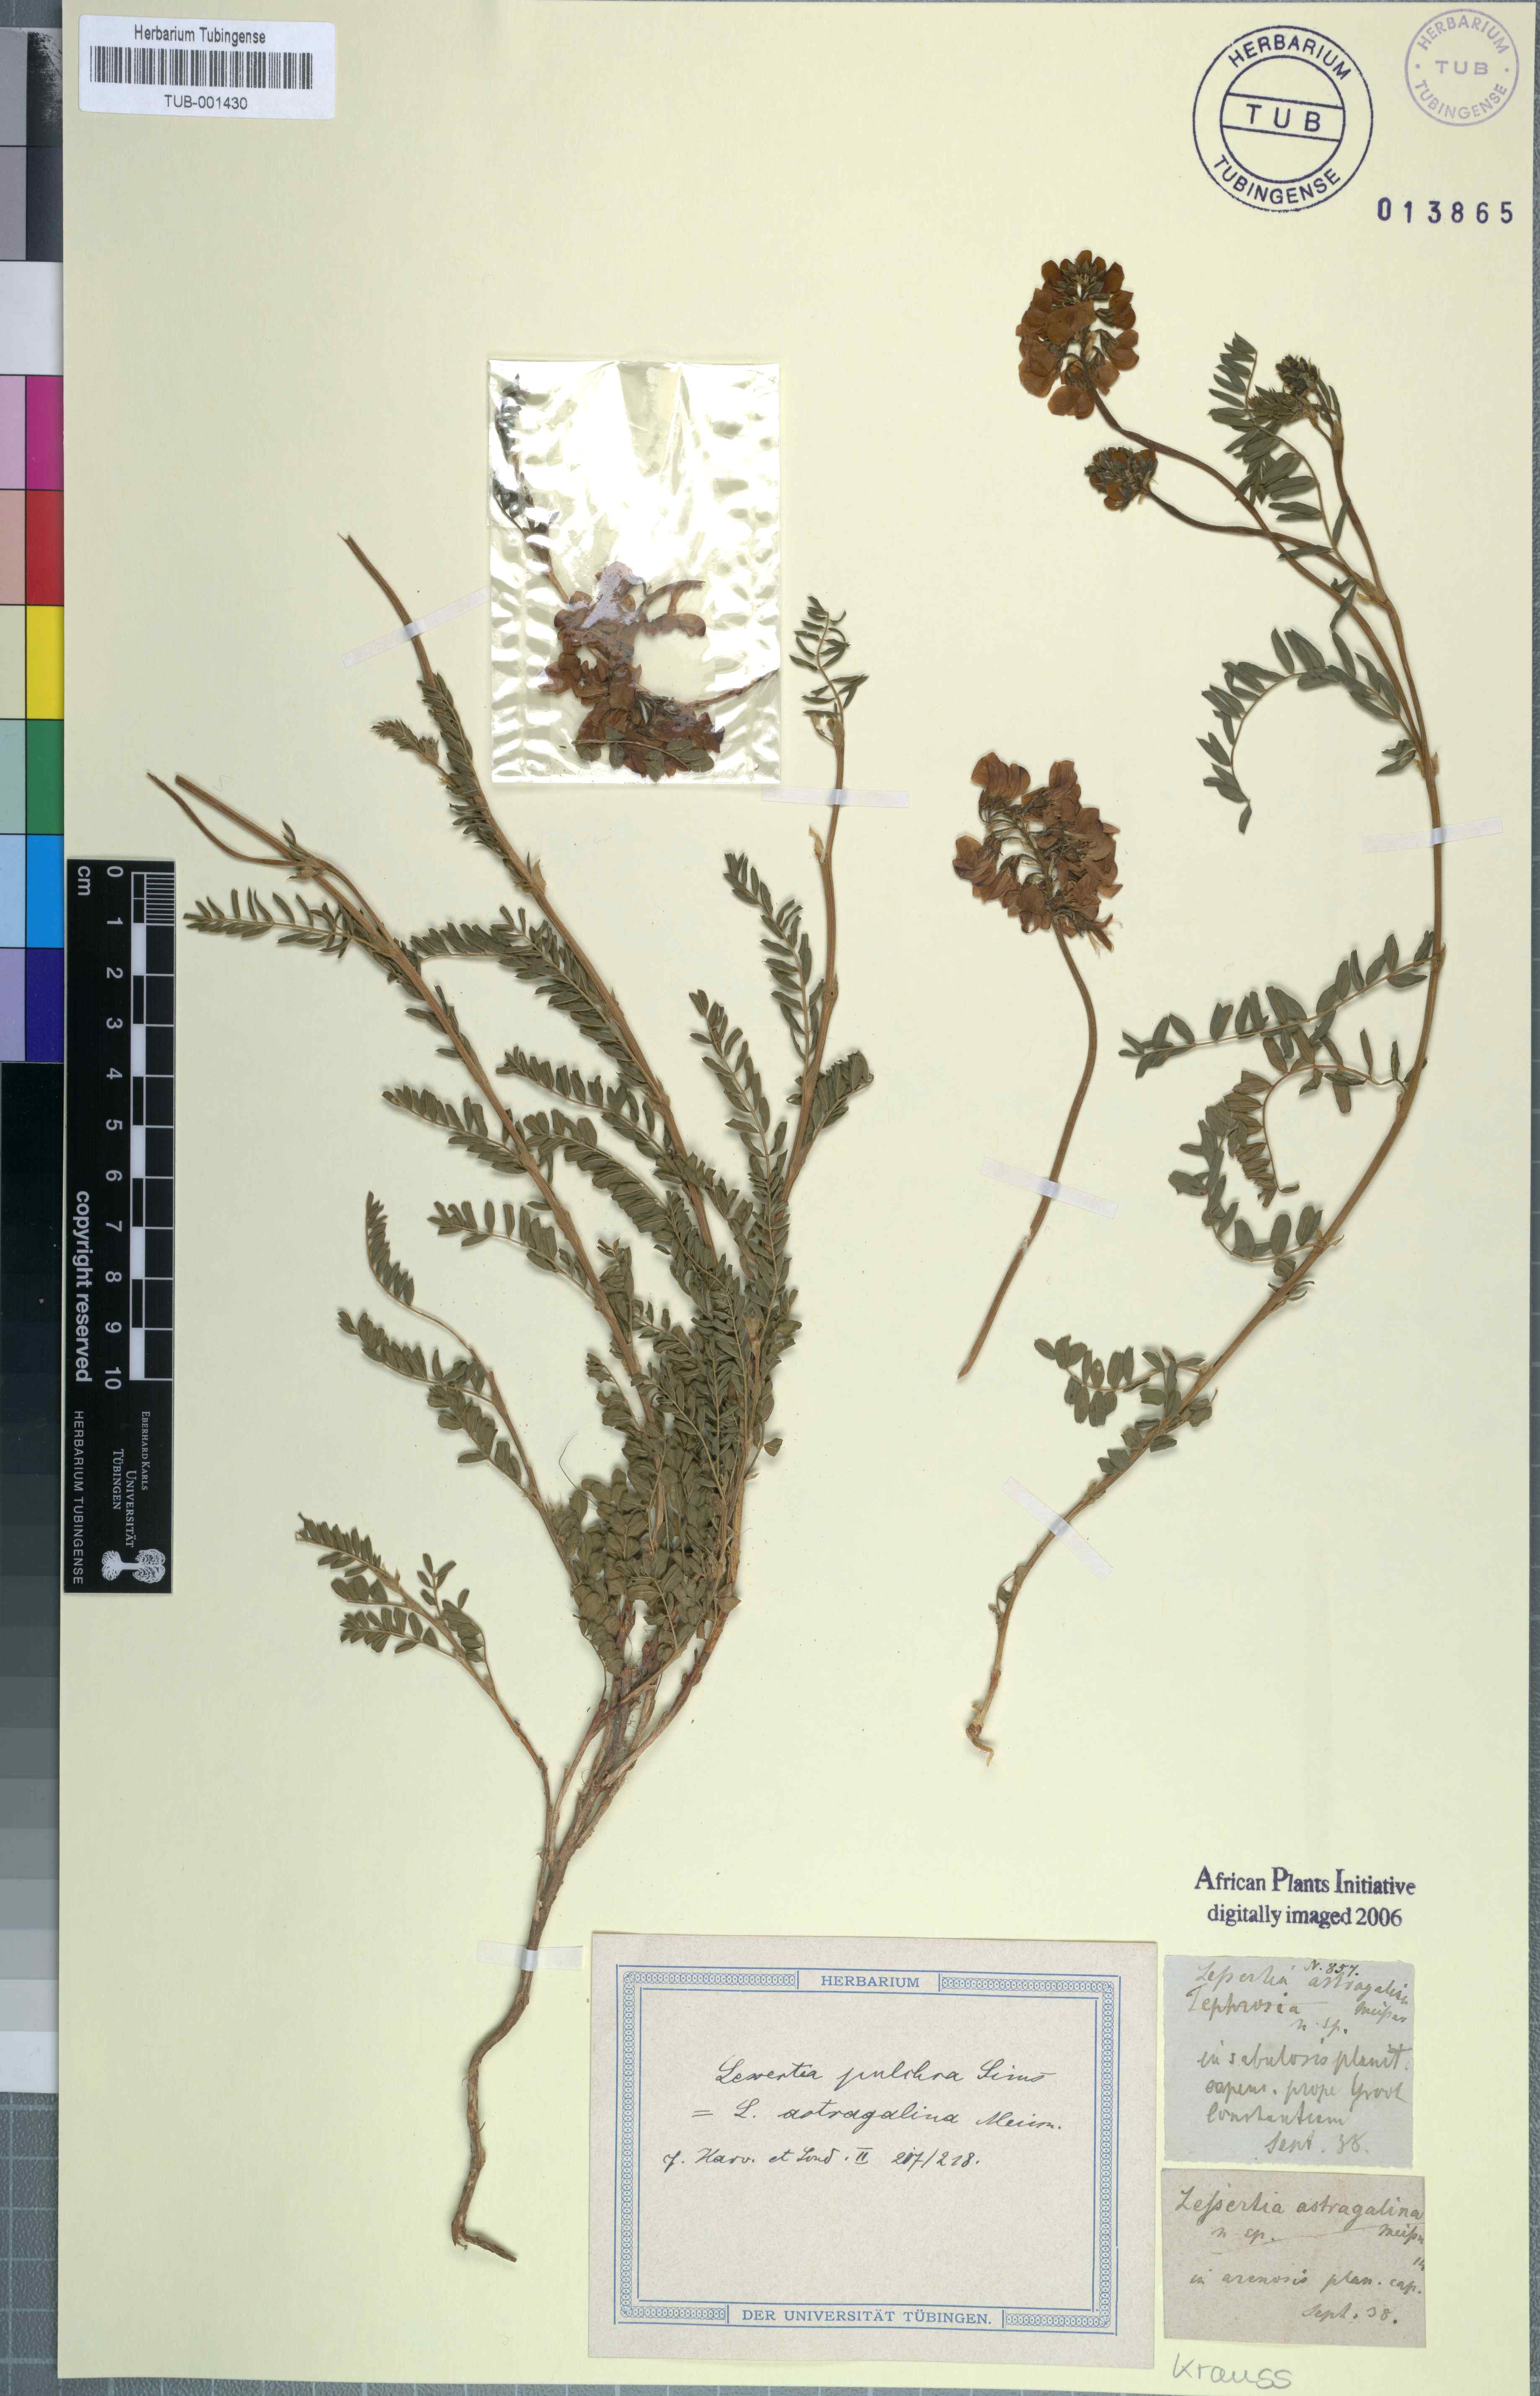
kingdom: Plantae
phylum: Tracheophyta
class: Magnoliopsida
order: Fabales
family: Fabaceae
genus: Lessertia
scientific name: Lessertia capensis
